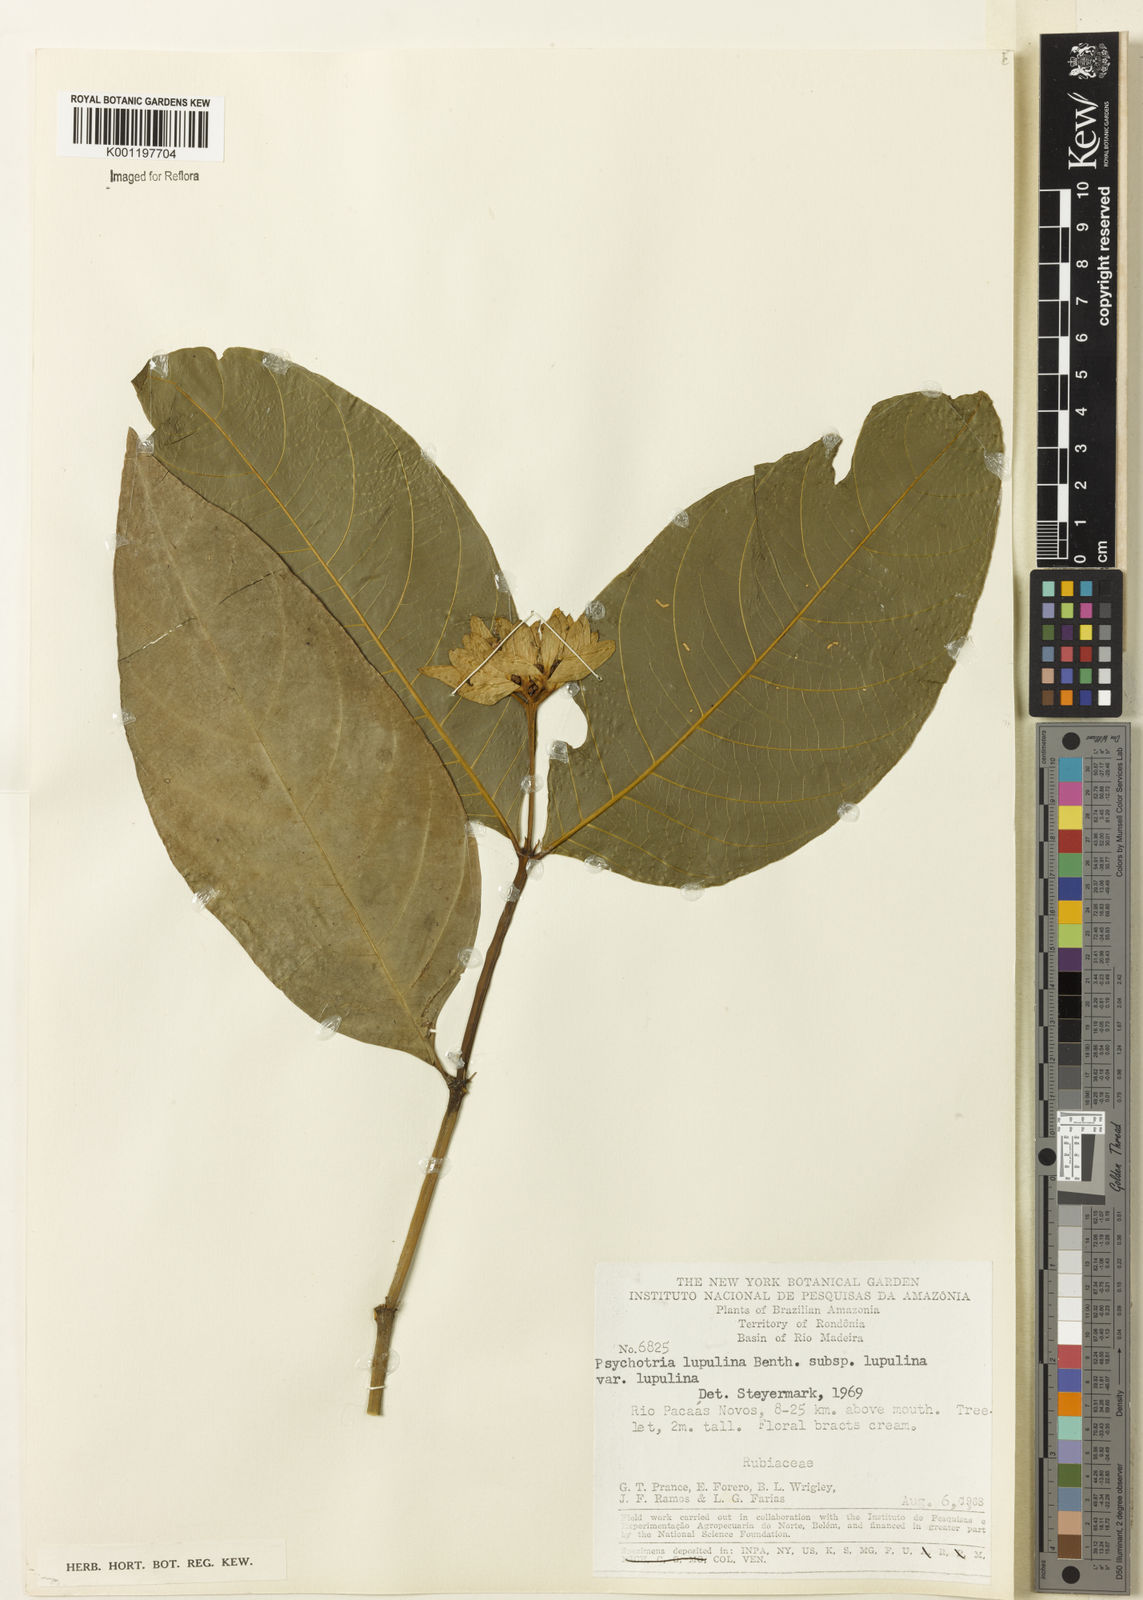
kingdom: Plantae
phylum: Tracheophyta
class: Magnoliopsida
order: Gentianales
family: Rubiaceae
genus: Palicourea
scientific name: Palicourea justiciifolia
